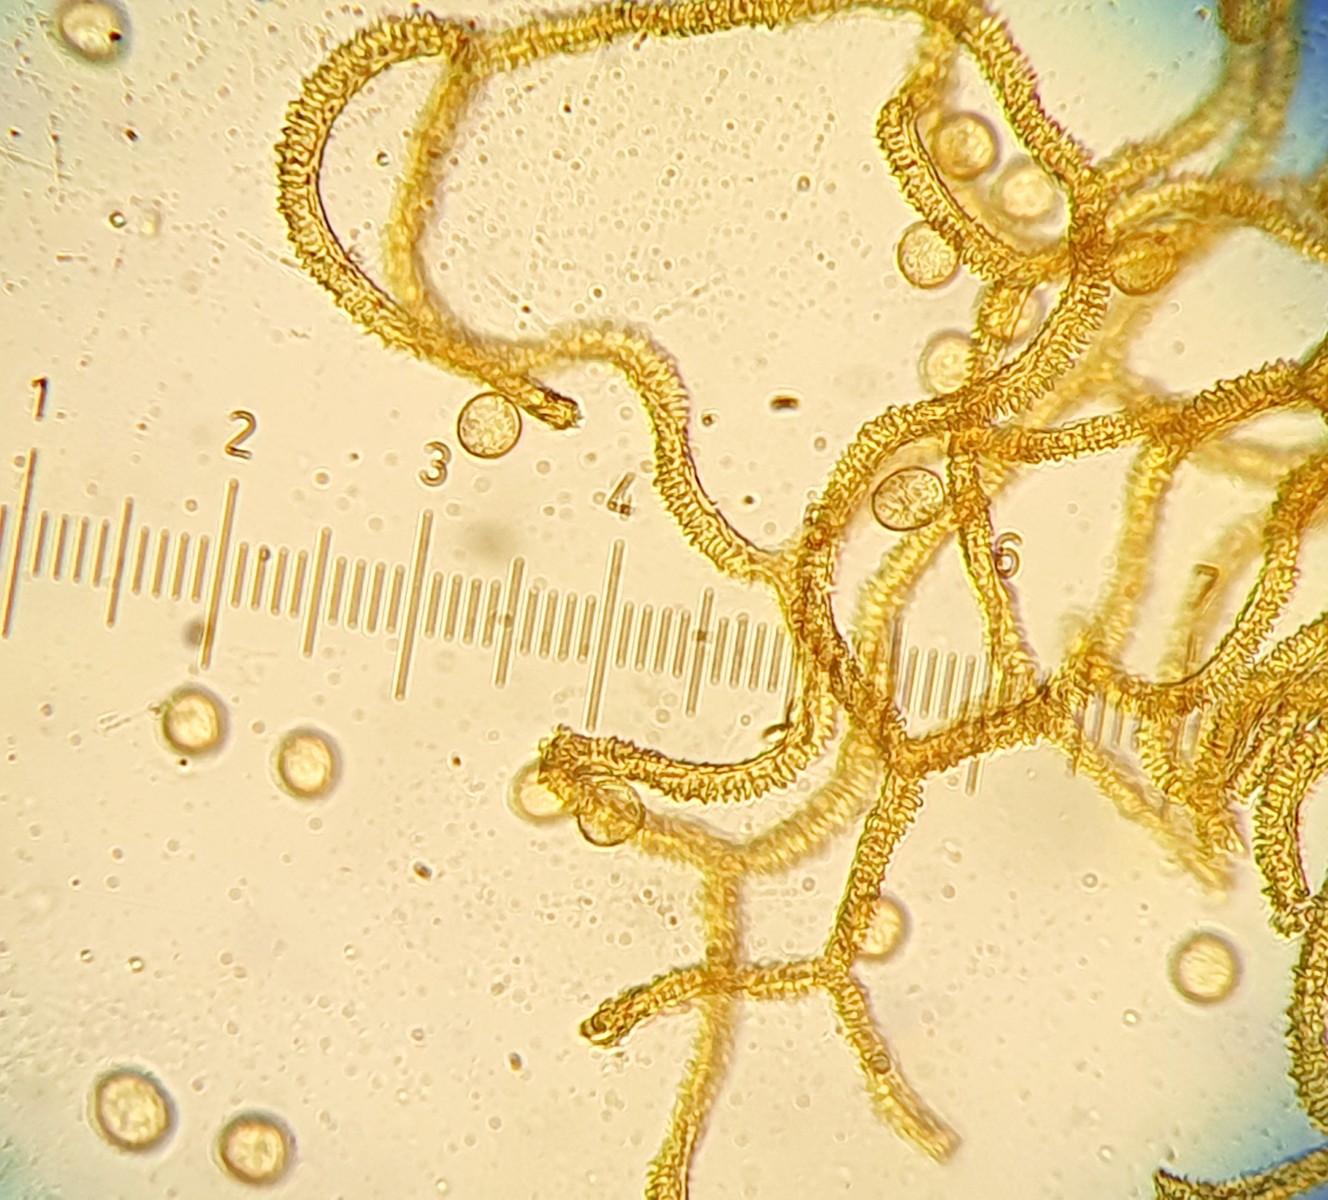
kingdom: Protozoa
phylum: Mycetozoa
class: Myxomycetes
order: Trichiales
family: Arcyriaceae
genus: Arcyria
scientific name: Arcyria ferruginea
